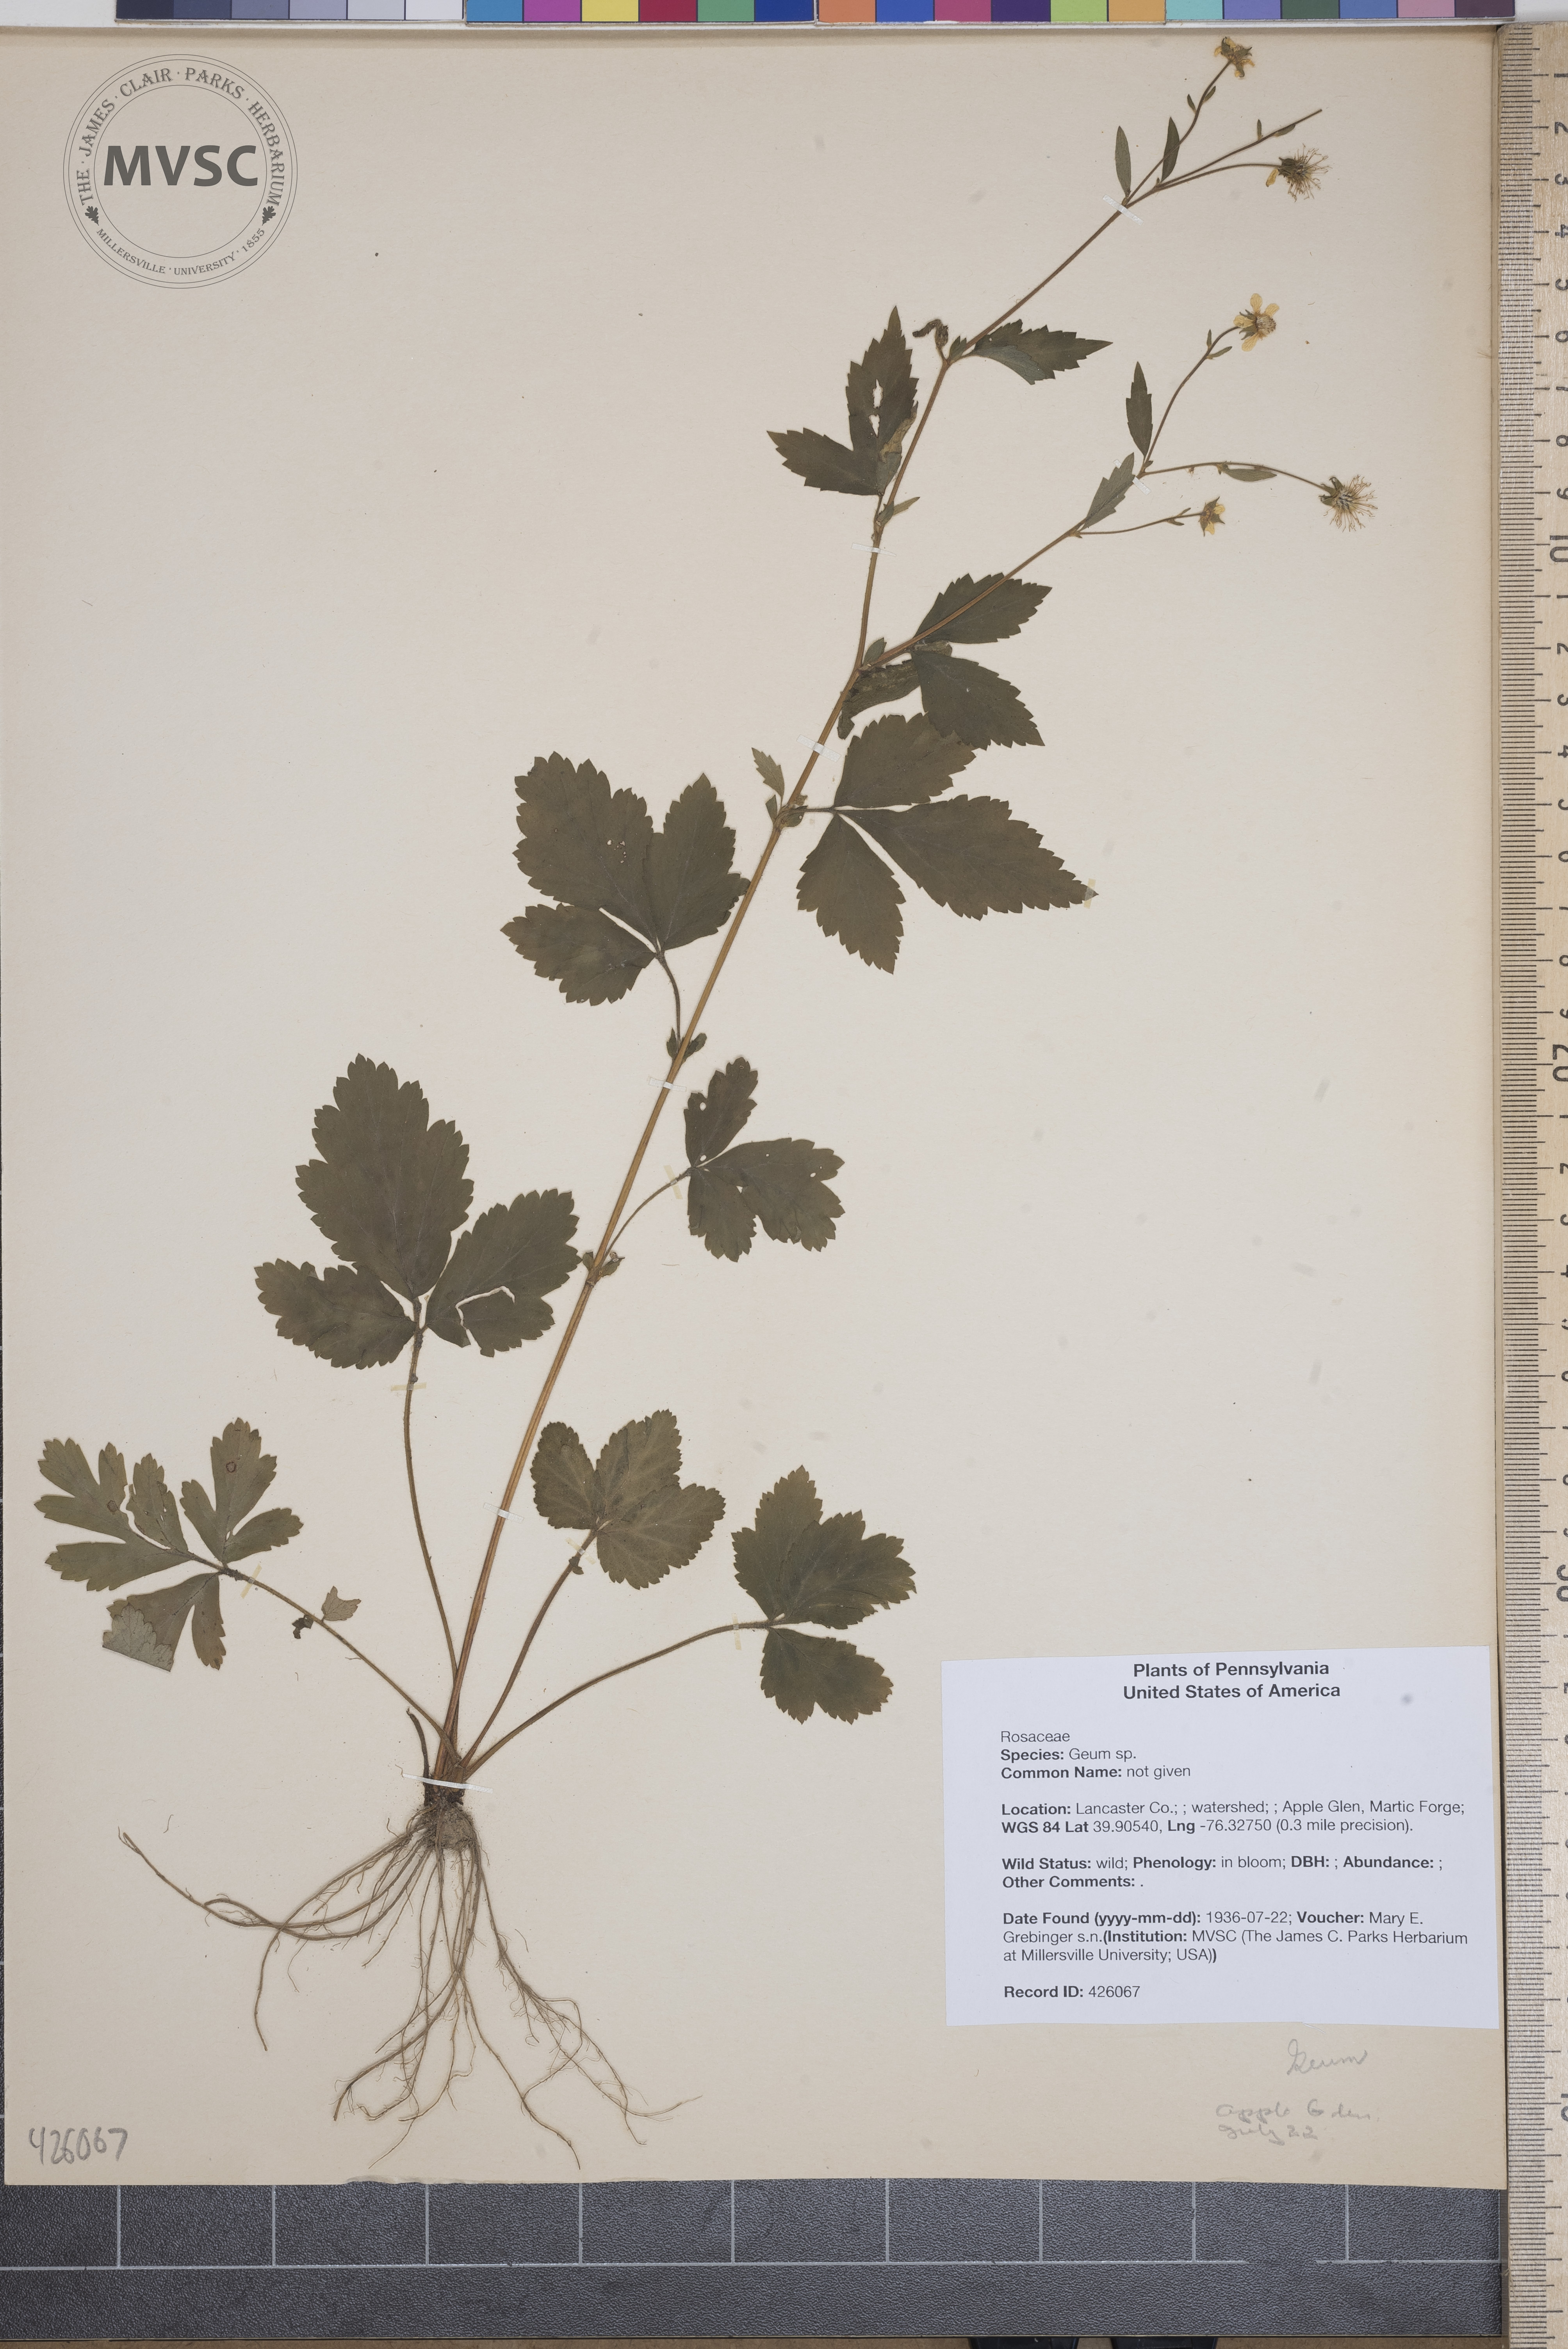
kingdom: Plantae
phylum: Tracheophyta
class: Magnoliopsida
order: Rosales
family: Rosaceae
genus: Geum
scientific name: Geum canadense
